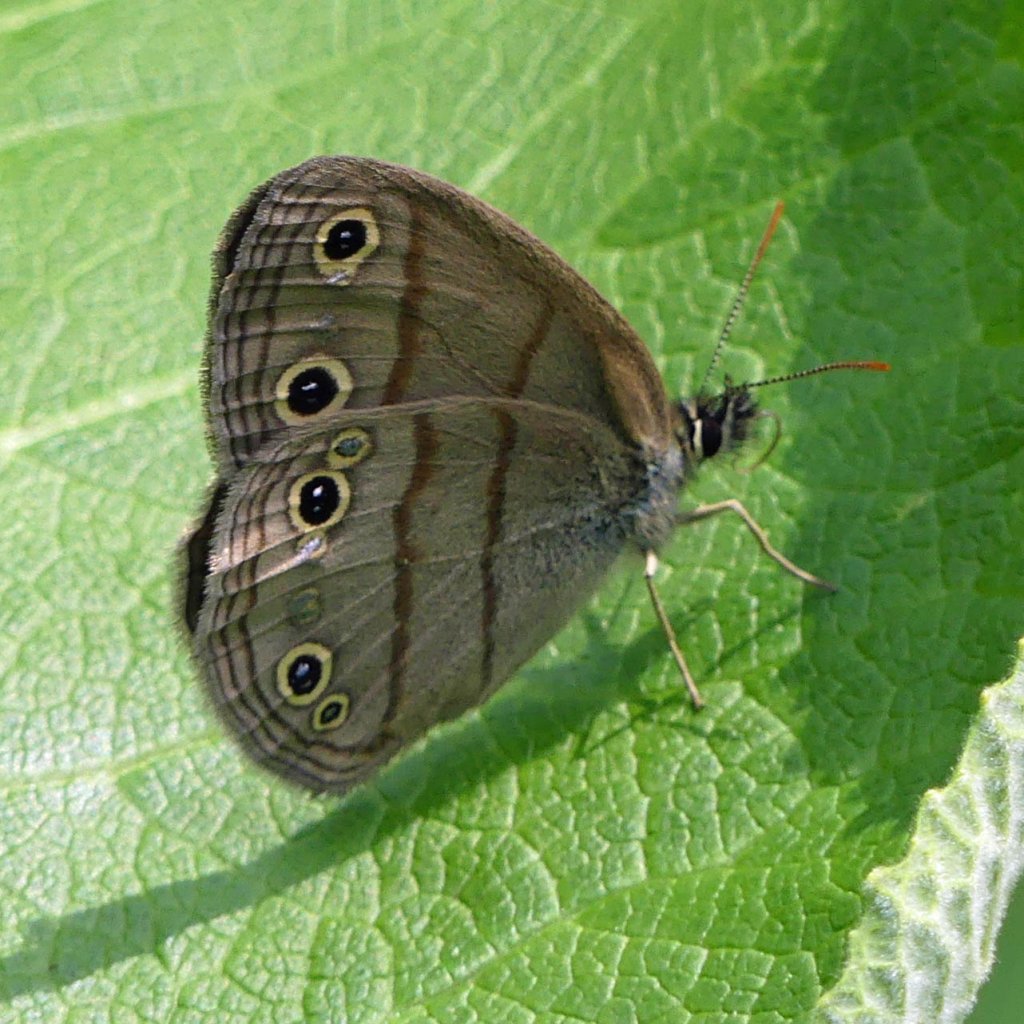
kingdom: Animalia
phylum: Arthropoda
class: Insecta
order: Lepidoptera
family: Nymphalidae
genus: Euptychia
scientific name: Euptychia cymela
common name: Little Wood Satyr
